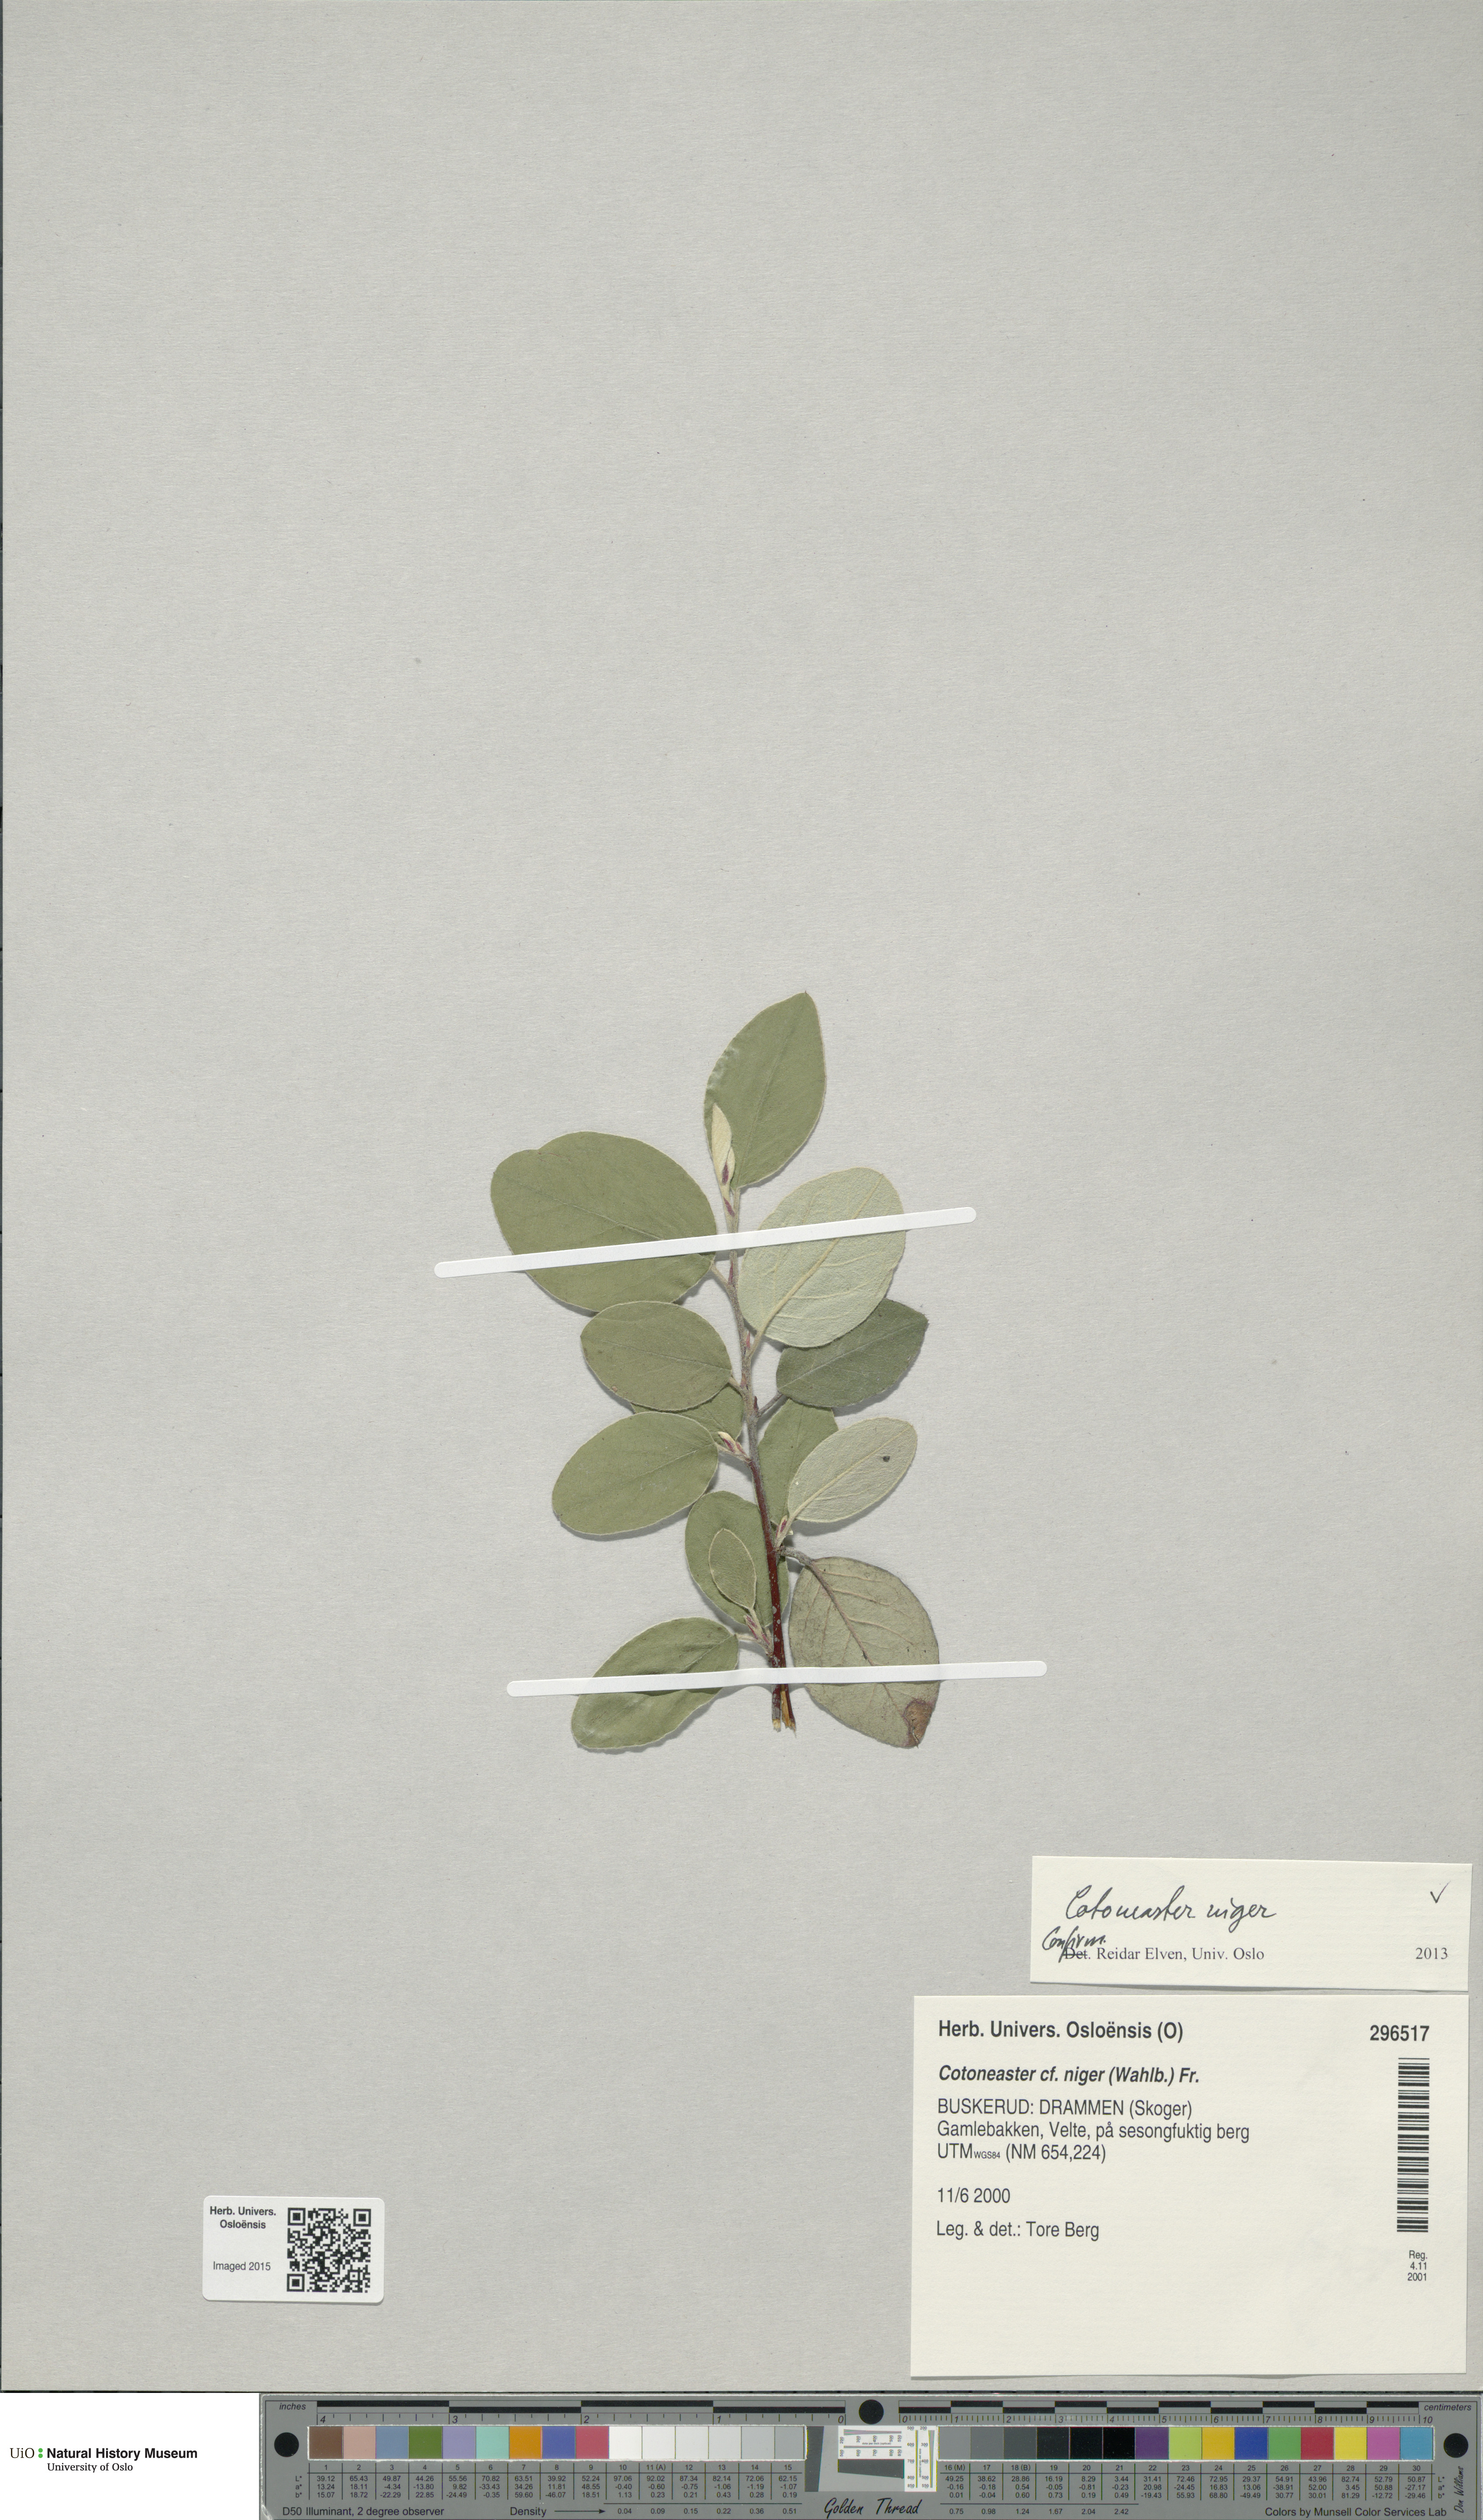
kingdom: Plantae
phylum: Tracheophyta
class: Magnoliopsida
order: Rosales
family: Rosaceae
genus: Cotoneaster
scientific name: Cotoneaster tomentosus
